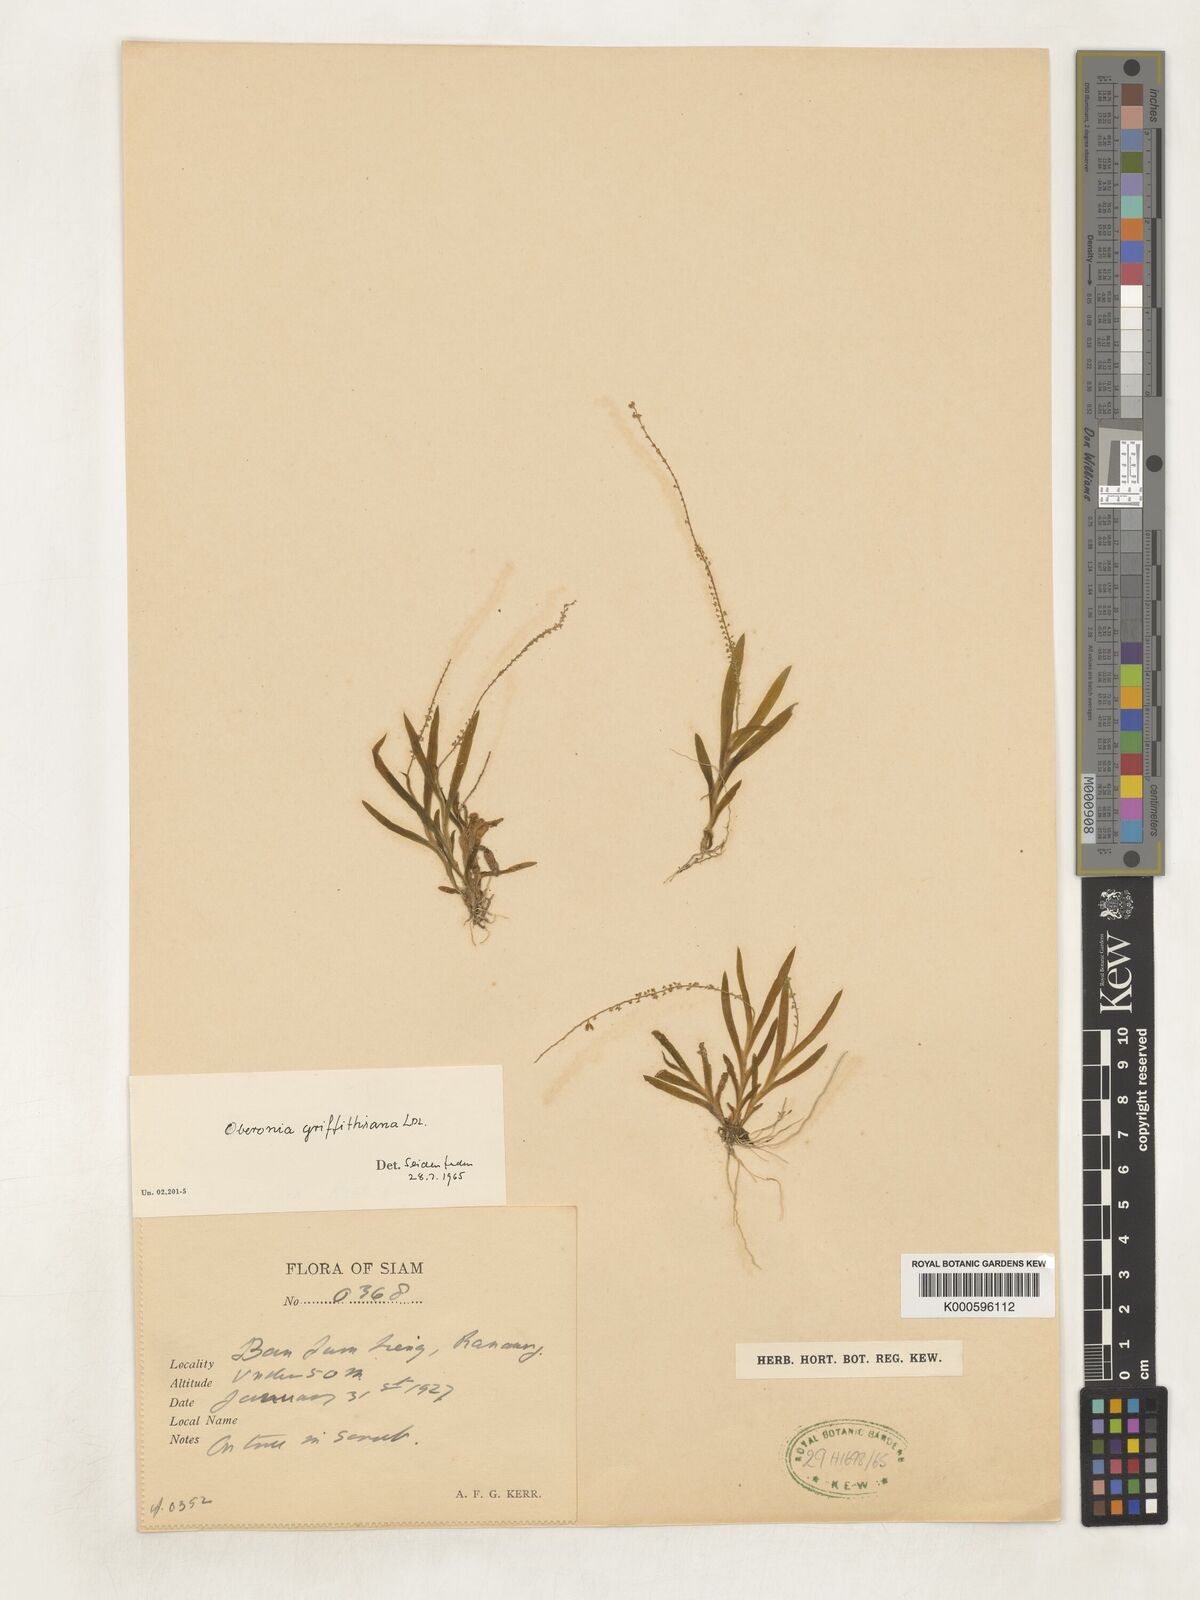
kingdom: Plantae
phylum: Tracheophyta
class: Liliopsida
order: Asparagales
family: Orchidaceae
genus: Oberonia
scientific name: Oberonia griffithiana
